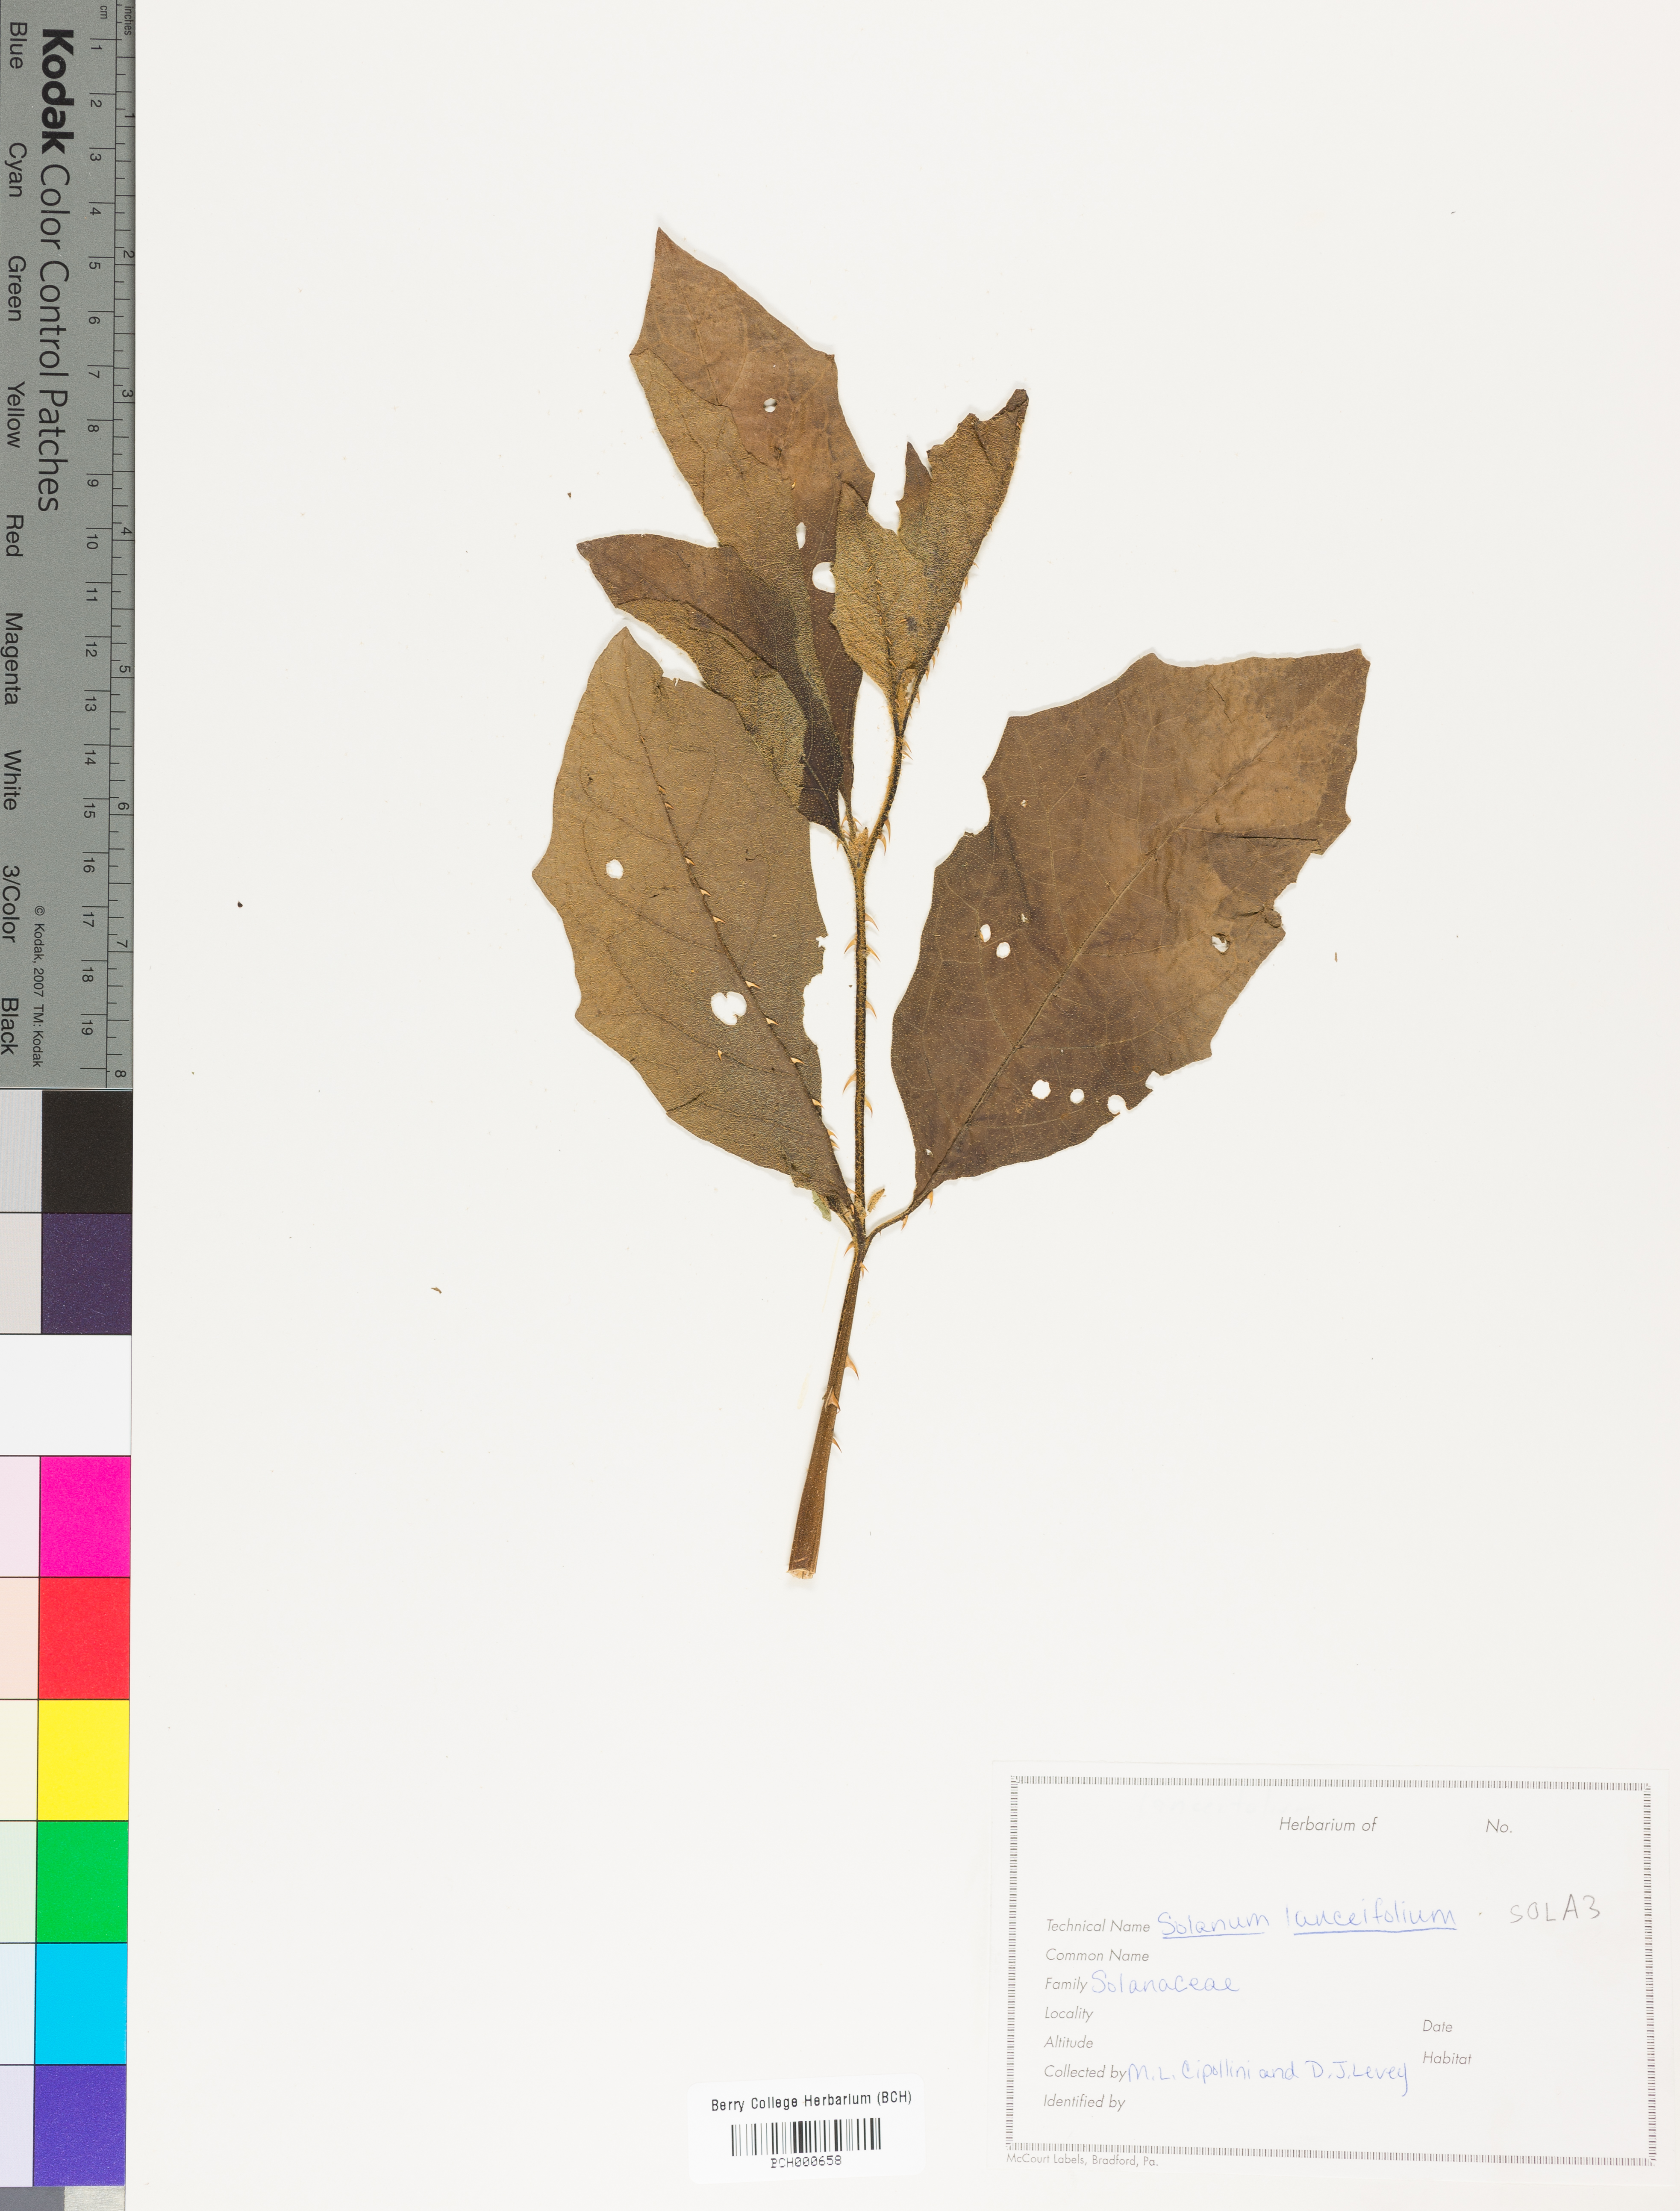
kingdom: Plantae
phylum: Tracheophyta
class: Magnoliopsida
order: Solanales
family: Solanaceae
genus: Solanum
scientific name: Solanum lanceifolium
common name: Lanceleaf nightshade
